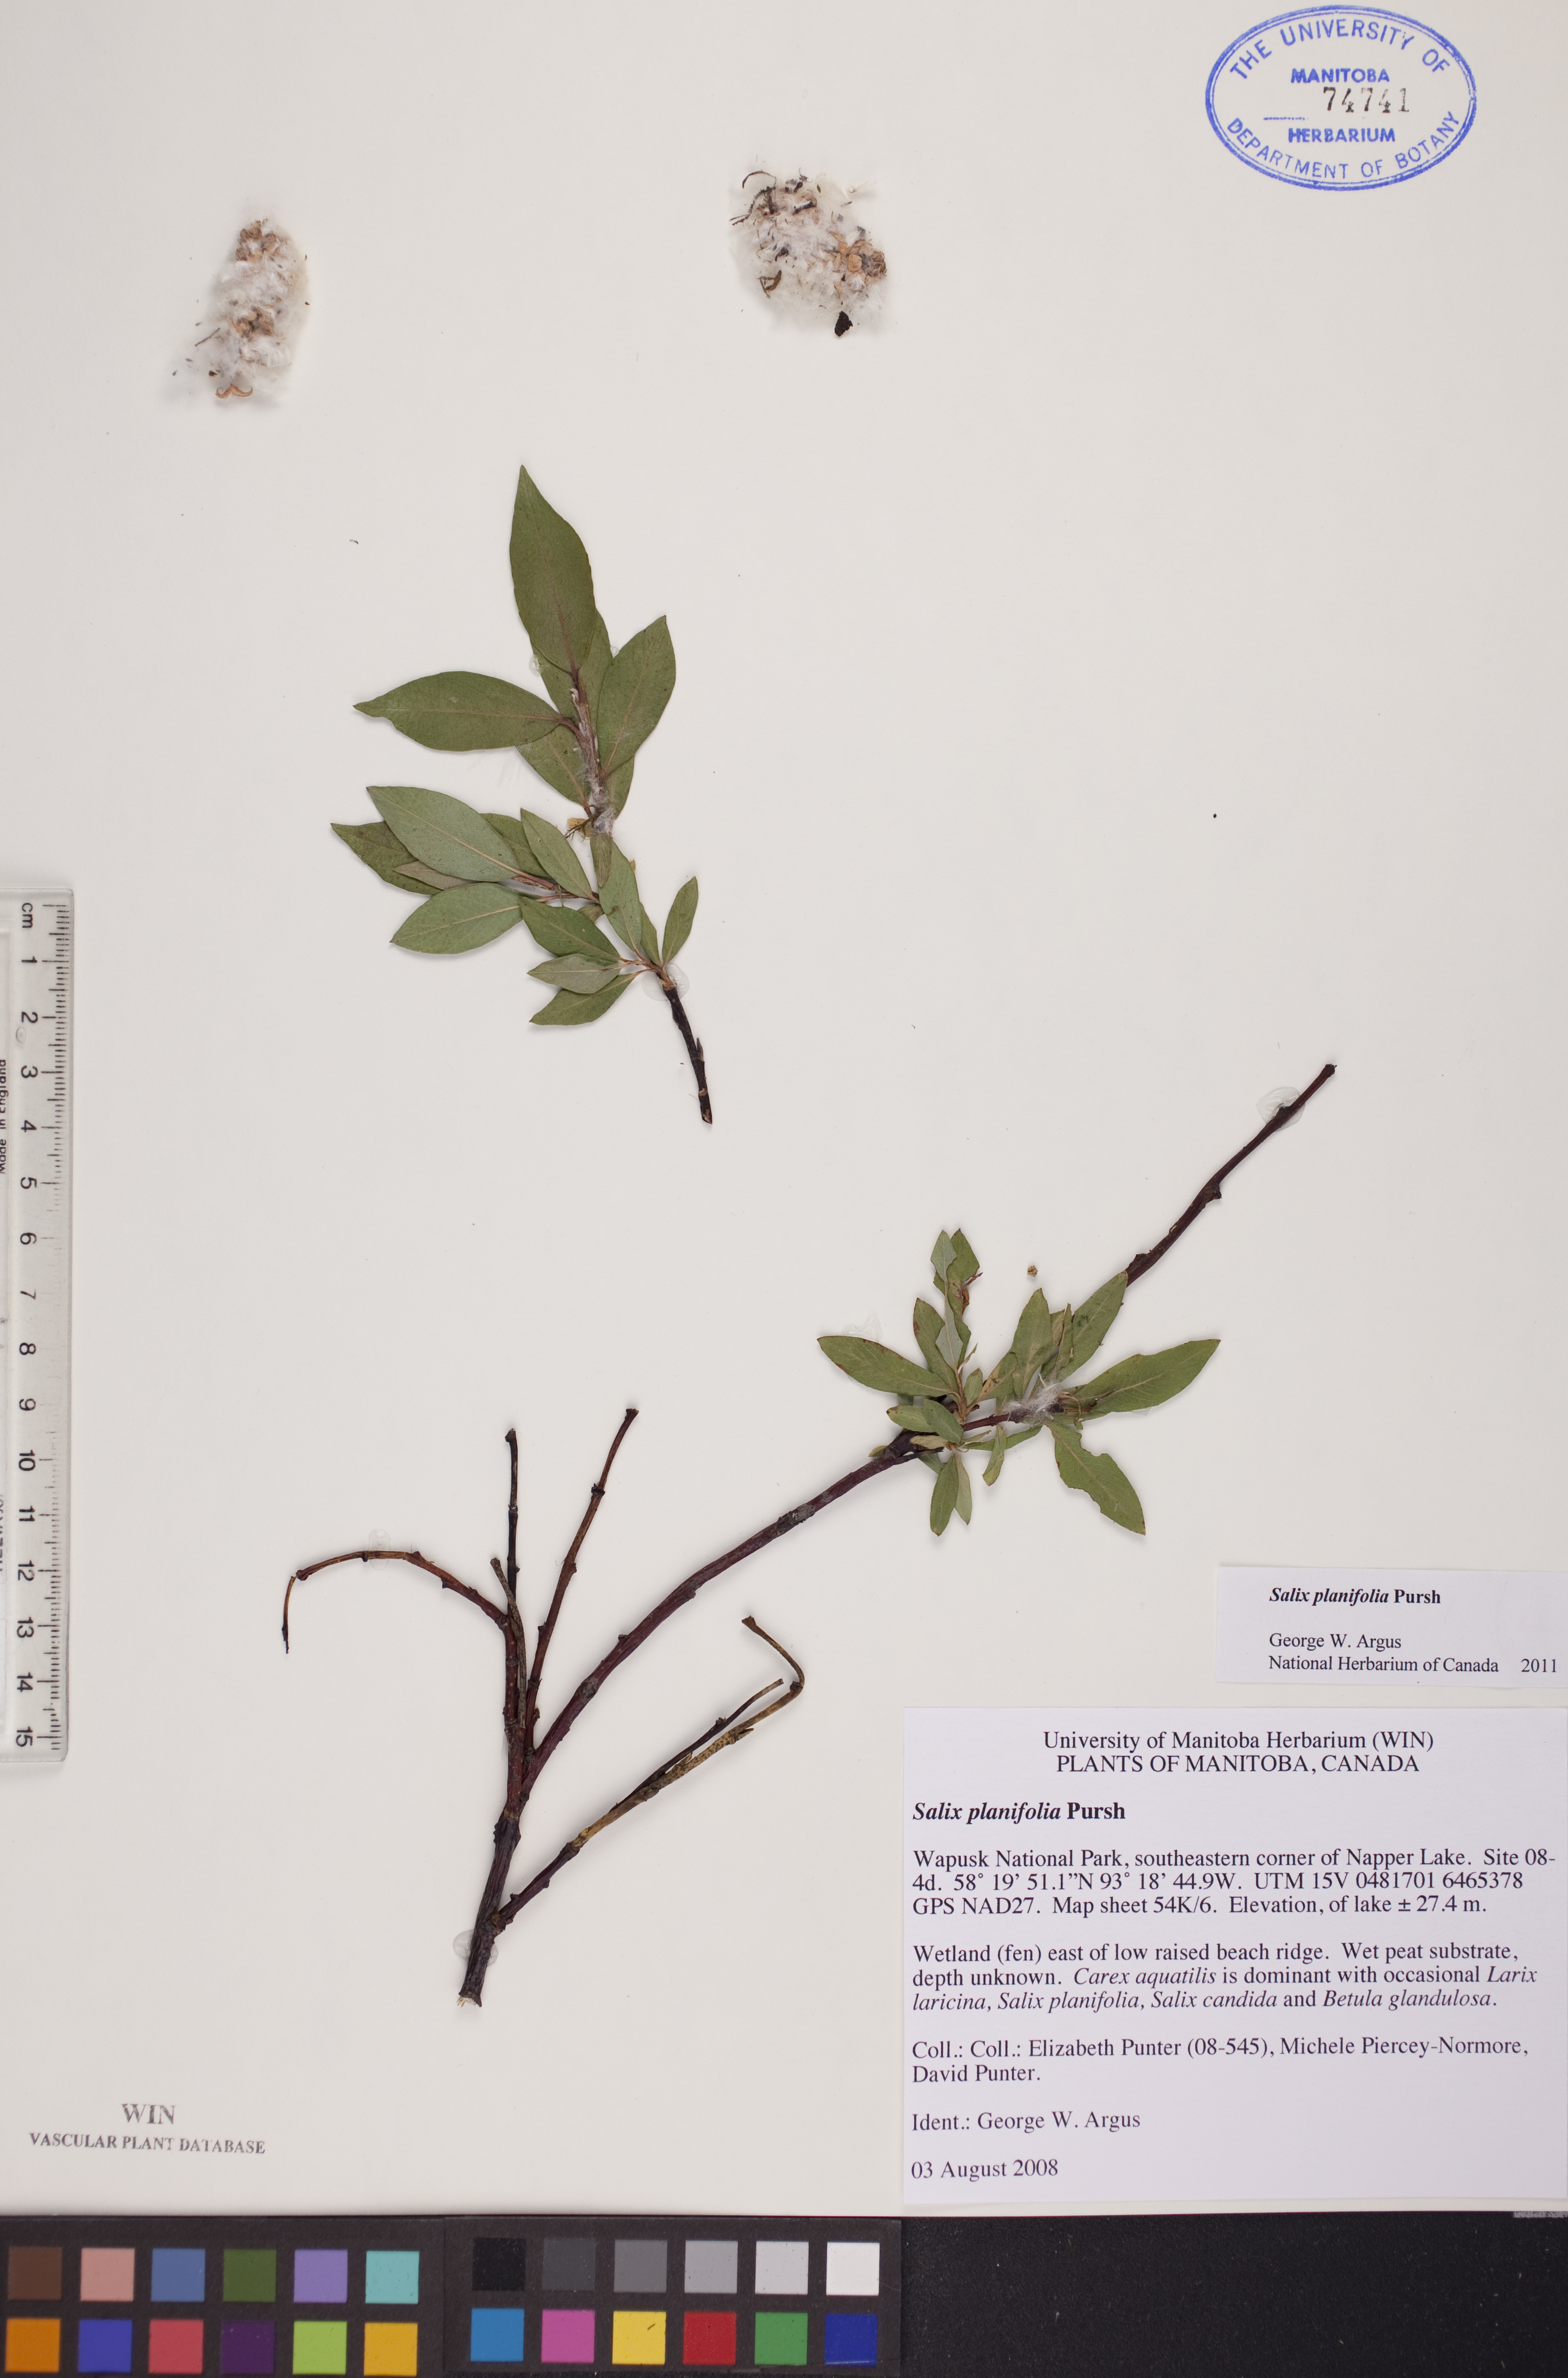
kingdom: Plantae
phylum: Tracheophyta
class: Magnoliopsida
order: Malpighiales
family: Salicaceae
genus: Salix
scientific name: Salix planifolia
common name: Mountain willow
